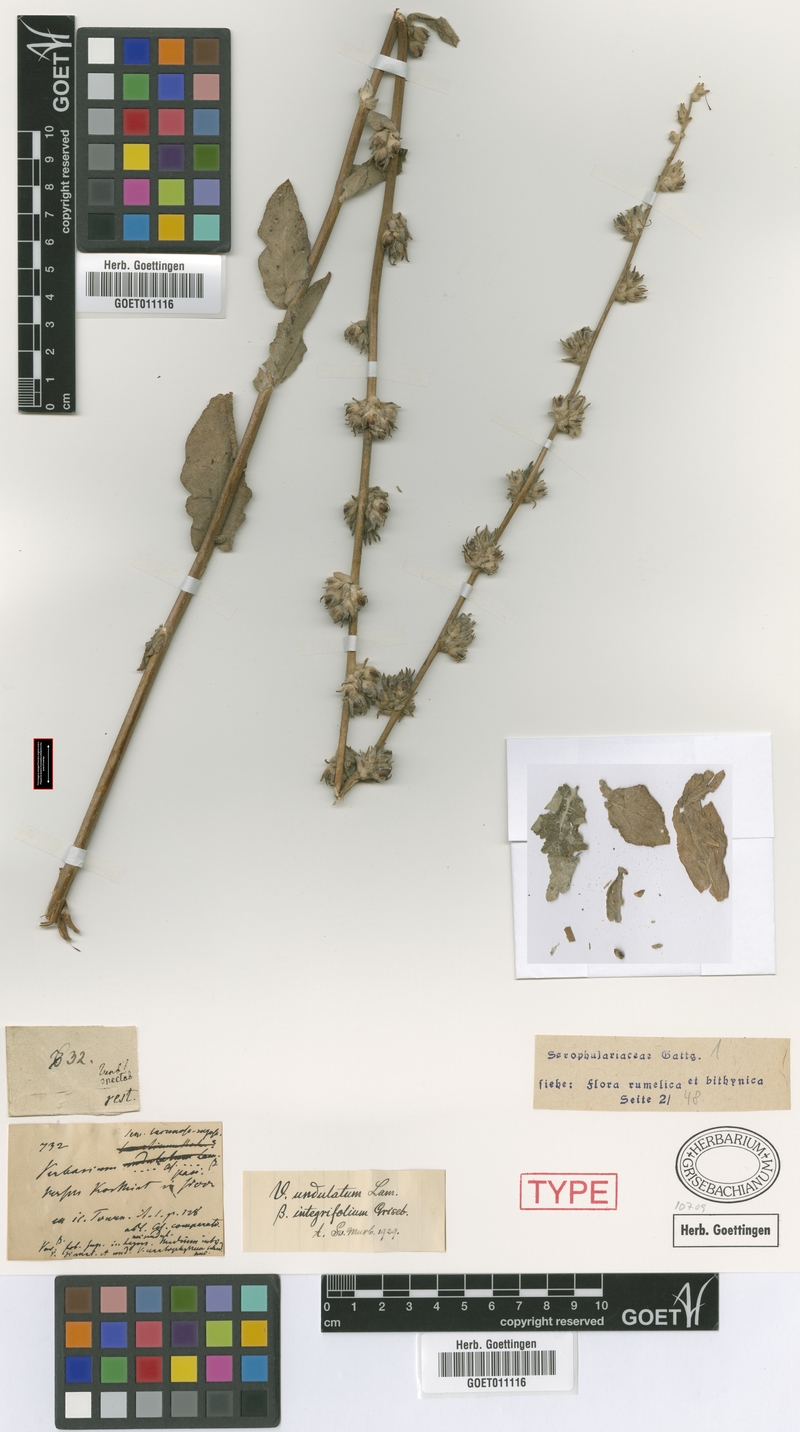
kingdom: Plantae
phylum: Tracheophyta
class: Magnoliopsida
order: Lamiales
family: Scrophulariaceae
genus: Verbascum
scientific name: Verbascum undulatum
